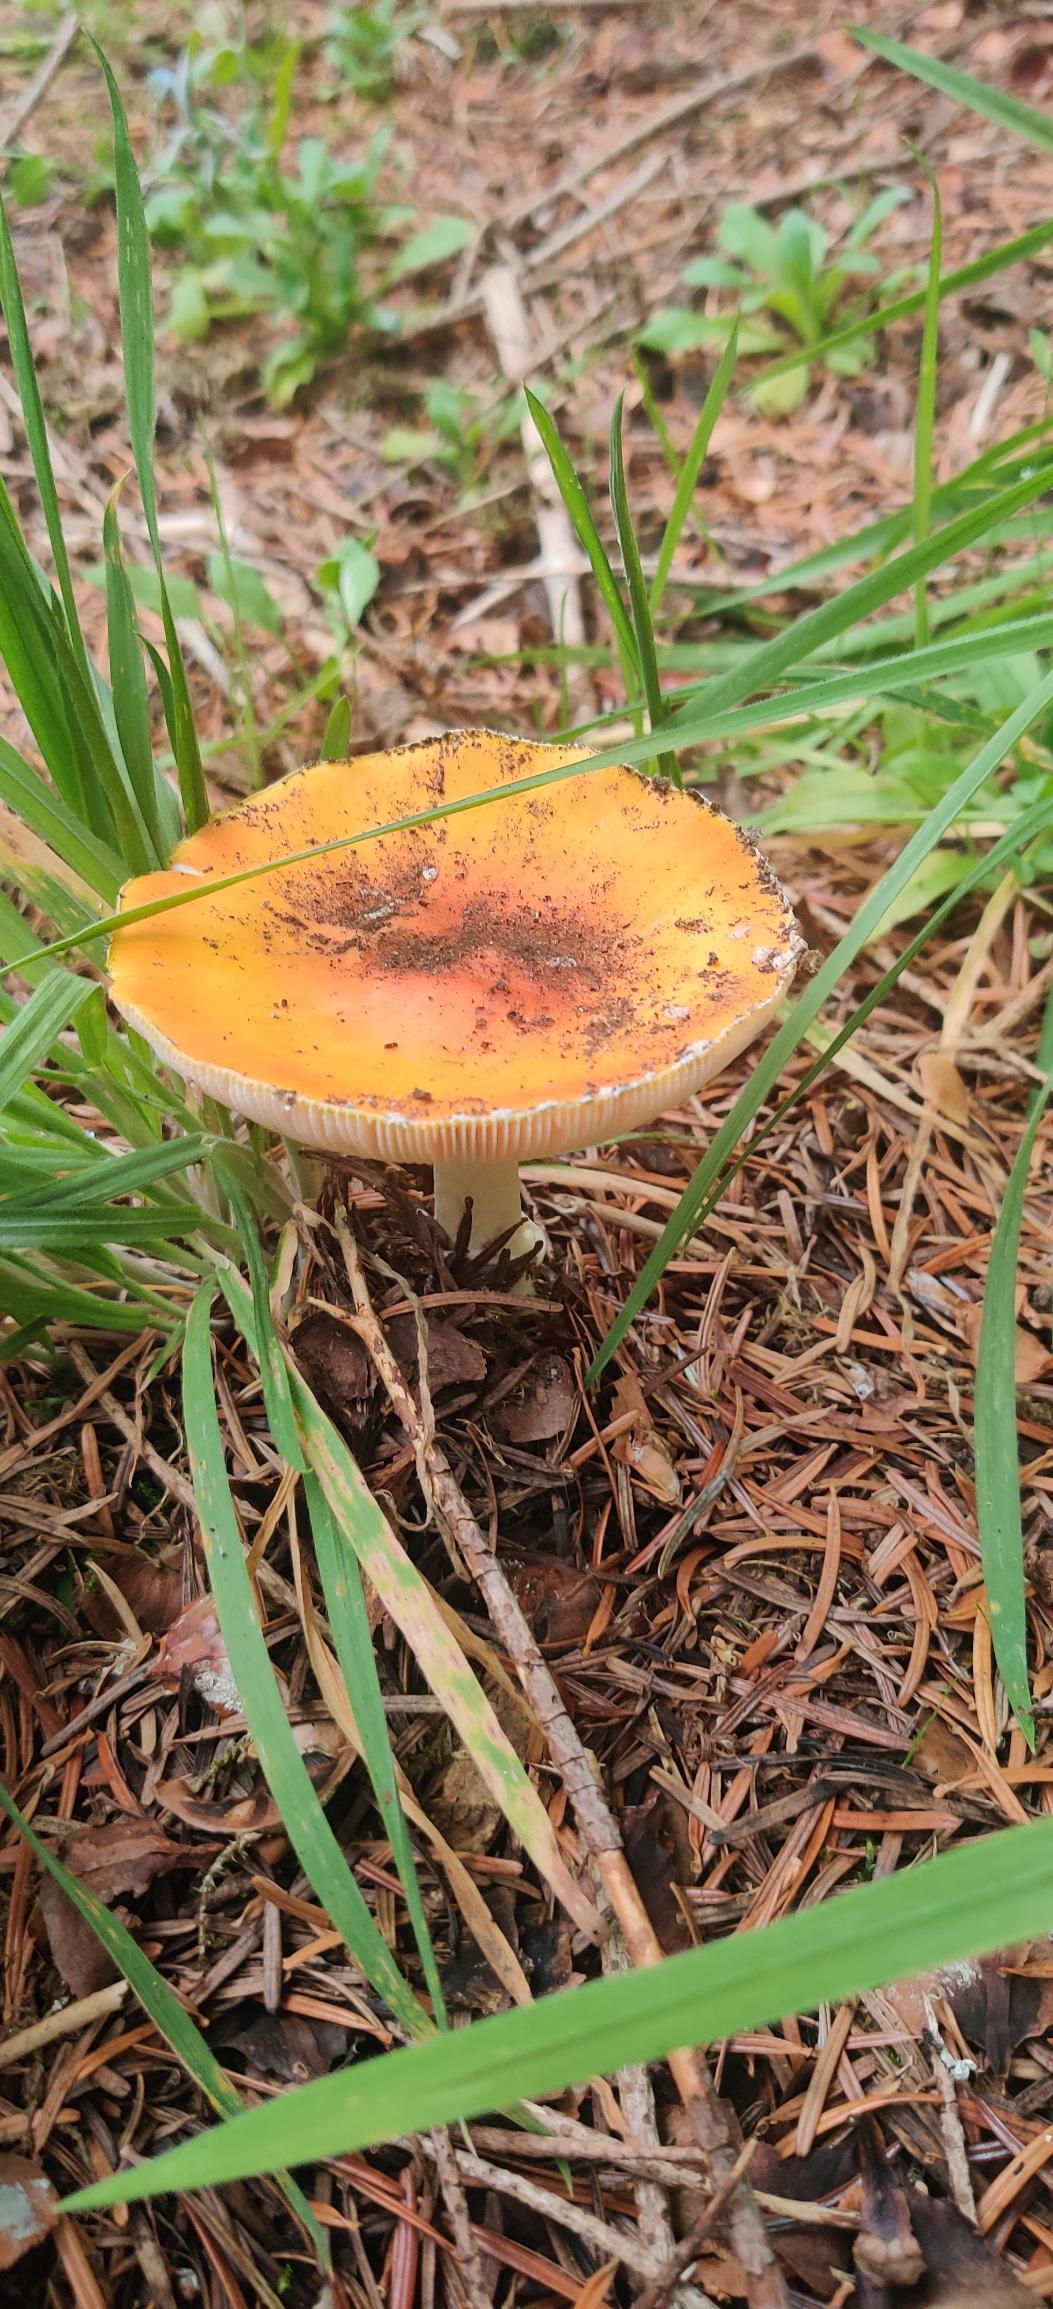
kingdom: Fungi
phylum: Basidiomycota
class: Agaricomycetes
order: Agaricales
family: Amanitaceae
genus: Amanita
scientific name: Amanita muscaria
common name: Rød fluesvamp
